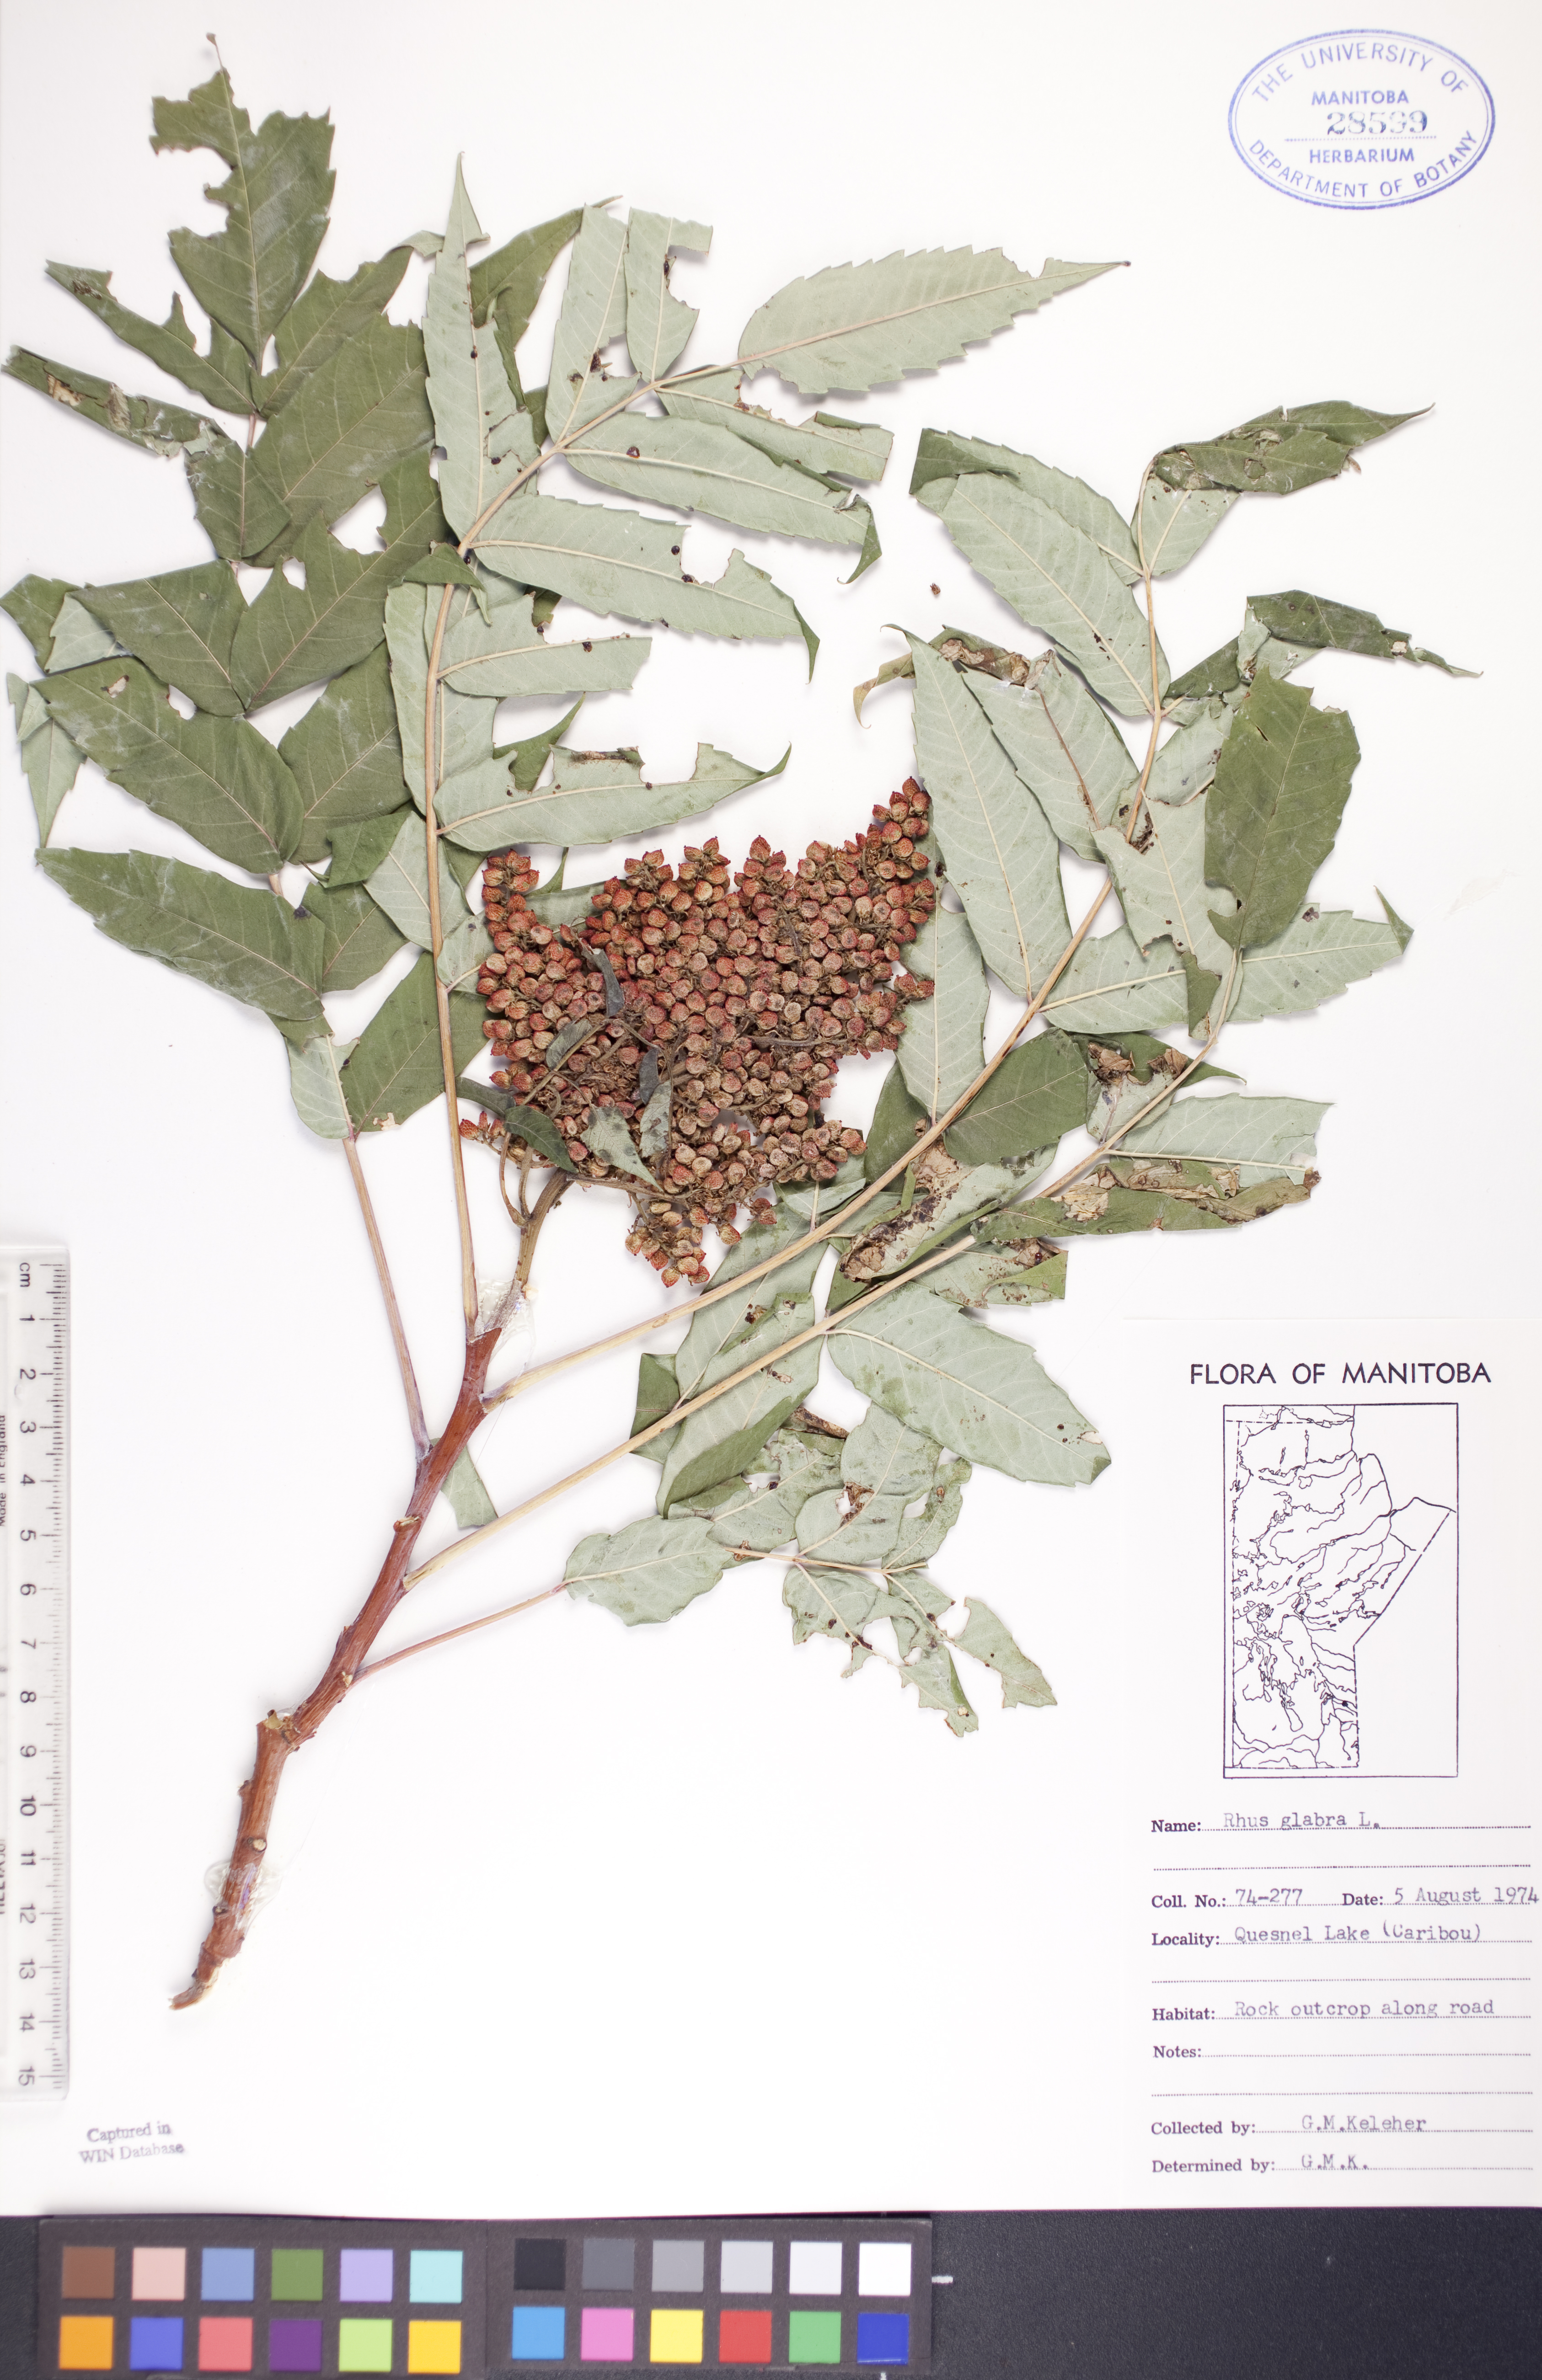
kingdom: Plantae
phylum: Tracheophyta
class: Magnoliopsida
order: Sapindales
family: Anacardiaceae
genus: Rhus
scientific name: Rhus glabra
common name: Scarlet sumac
